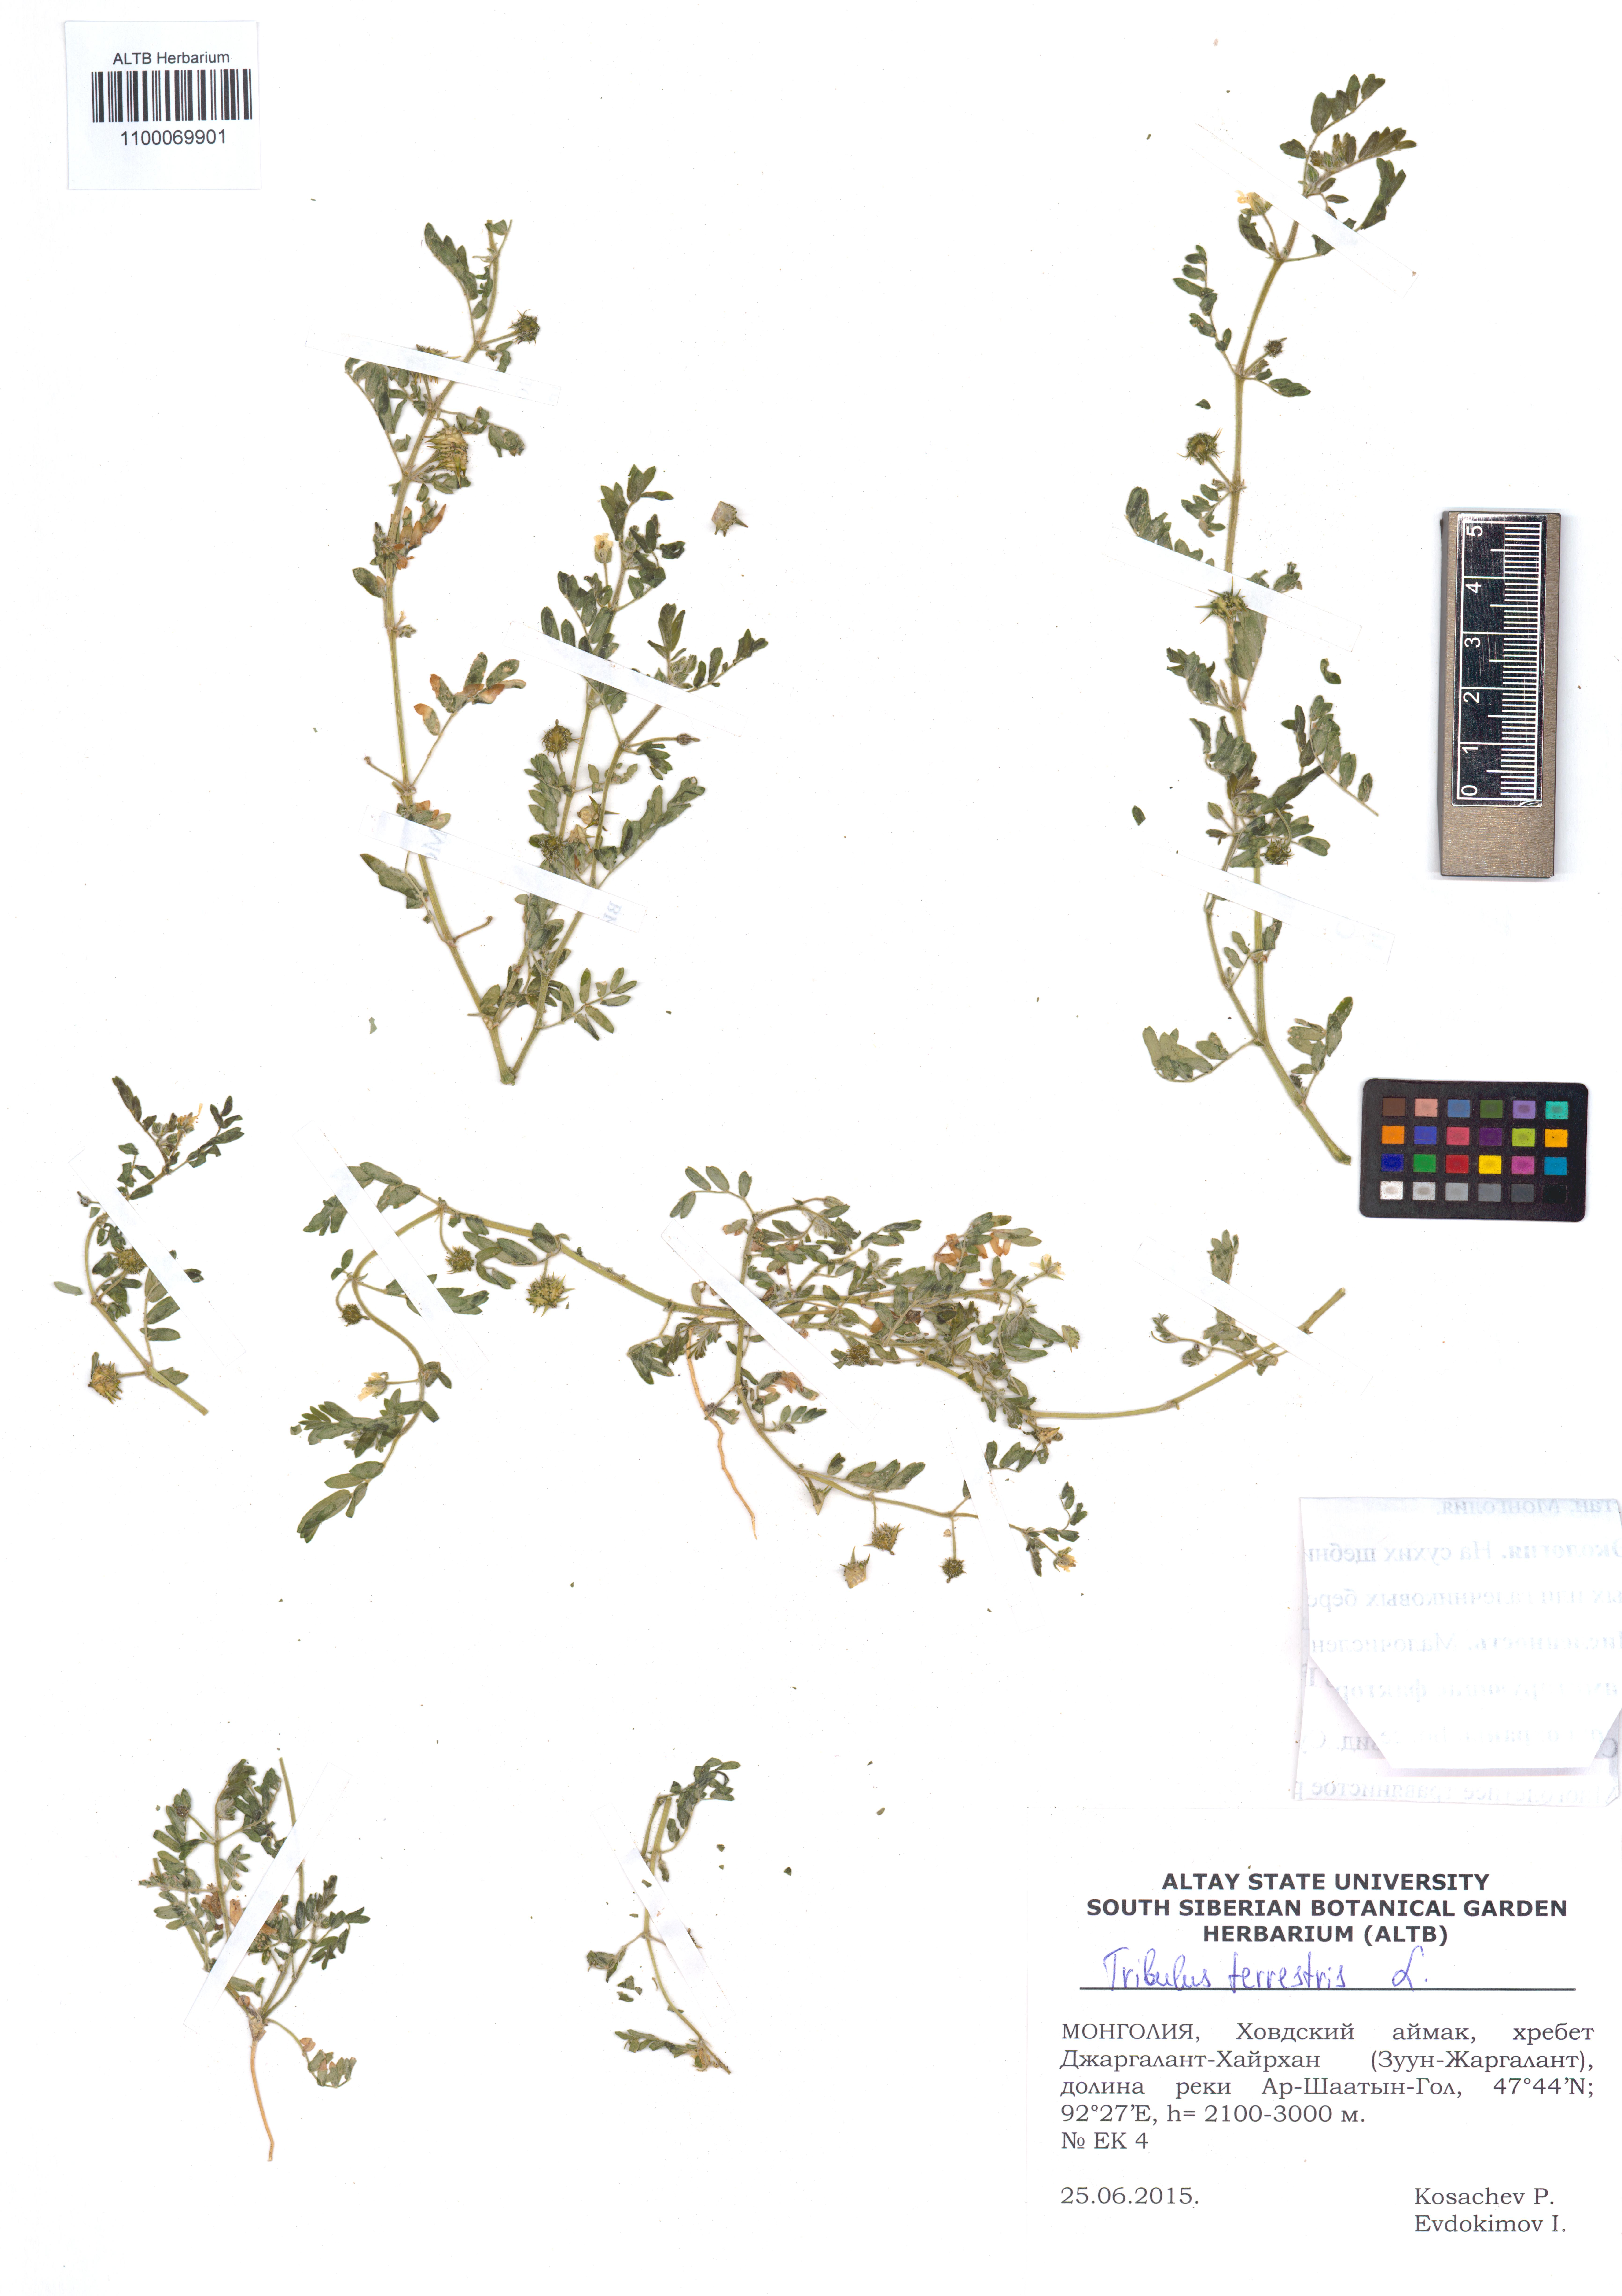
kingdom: Plantae
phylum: Tracheophyta
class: Magnoliopsida
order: Zygophyllales
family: Zygophyllaceae
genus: Tribulus
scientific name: Tribulus terrestris
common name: Puncturevine
